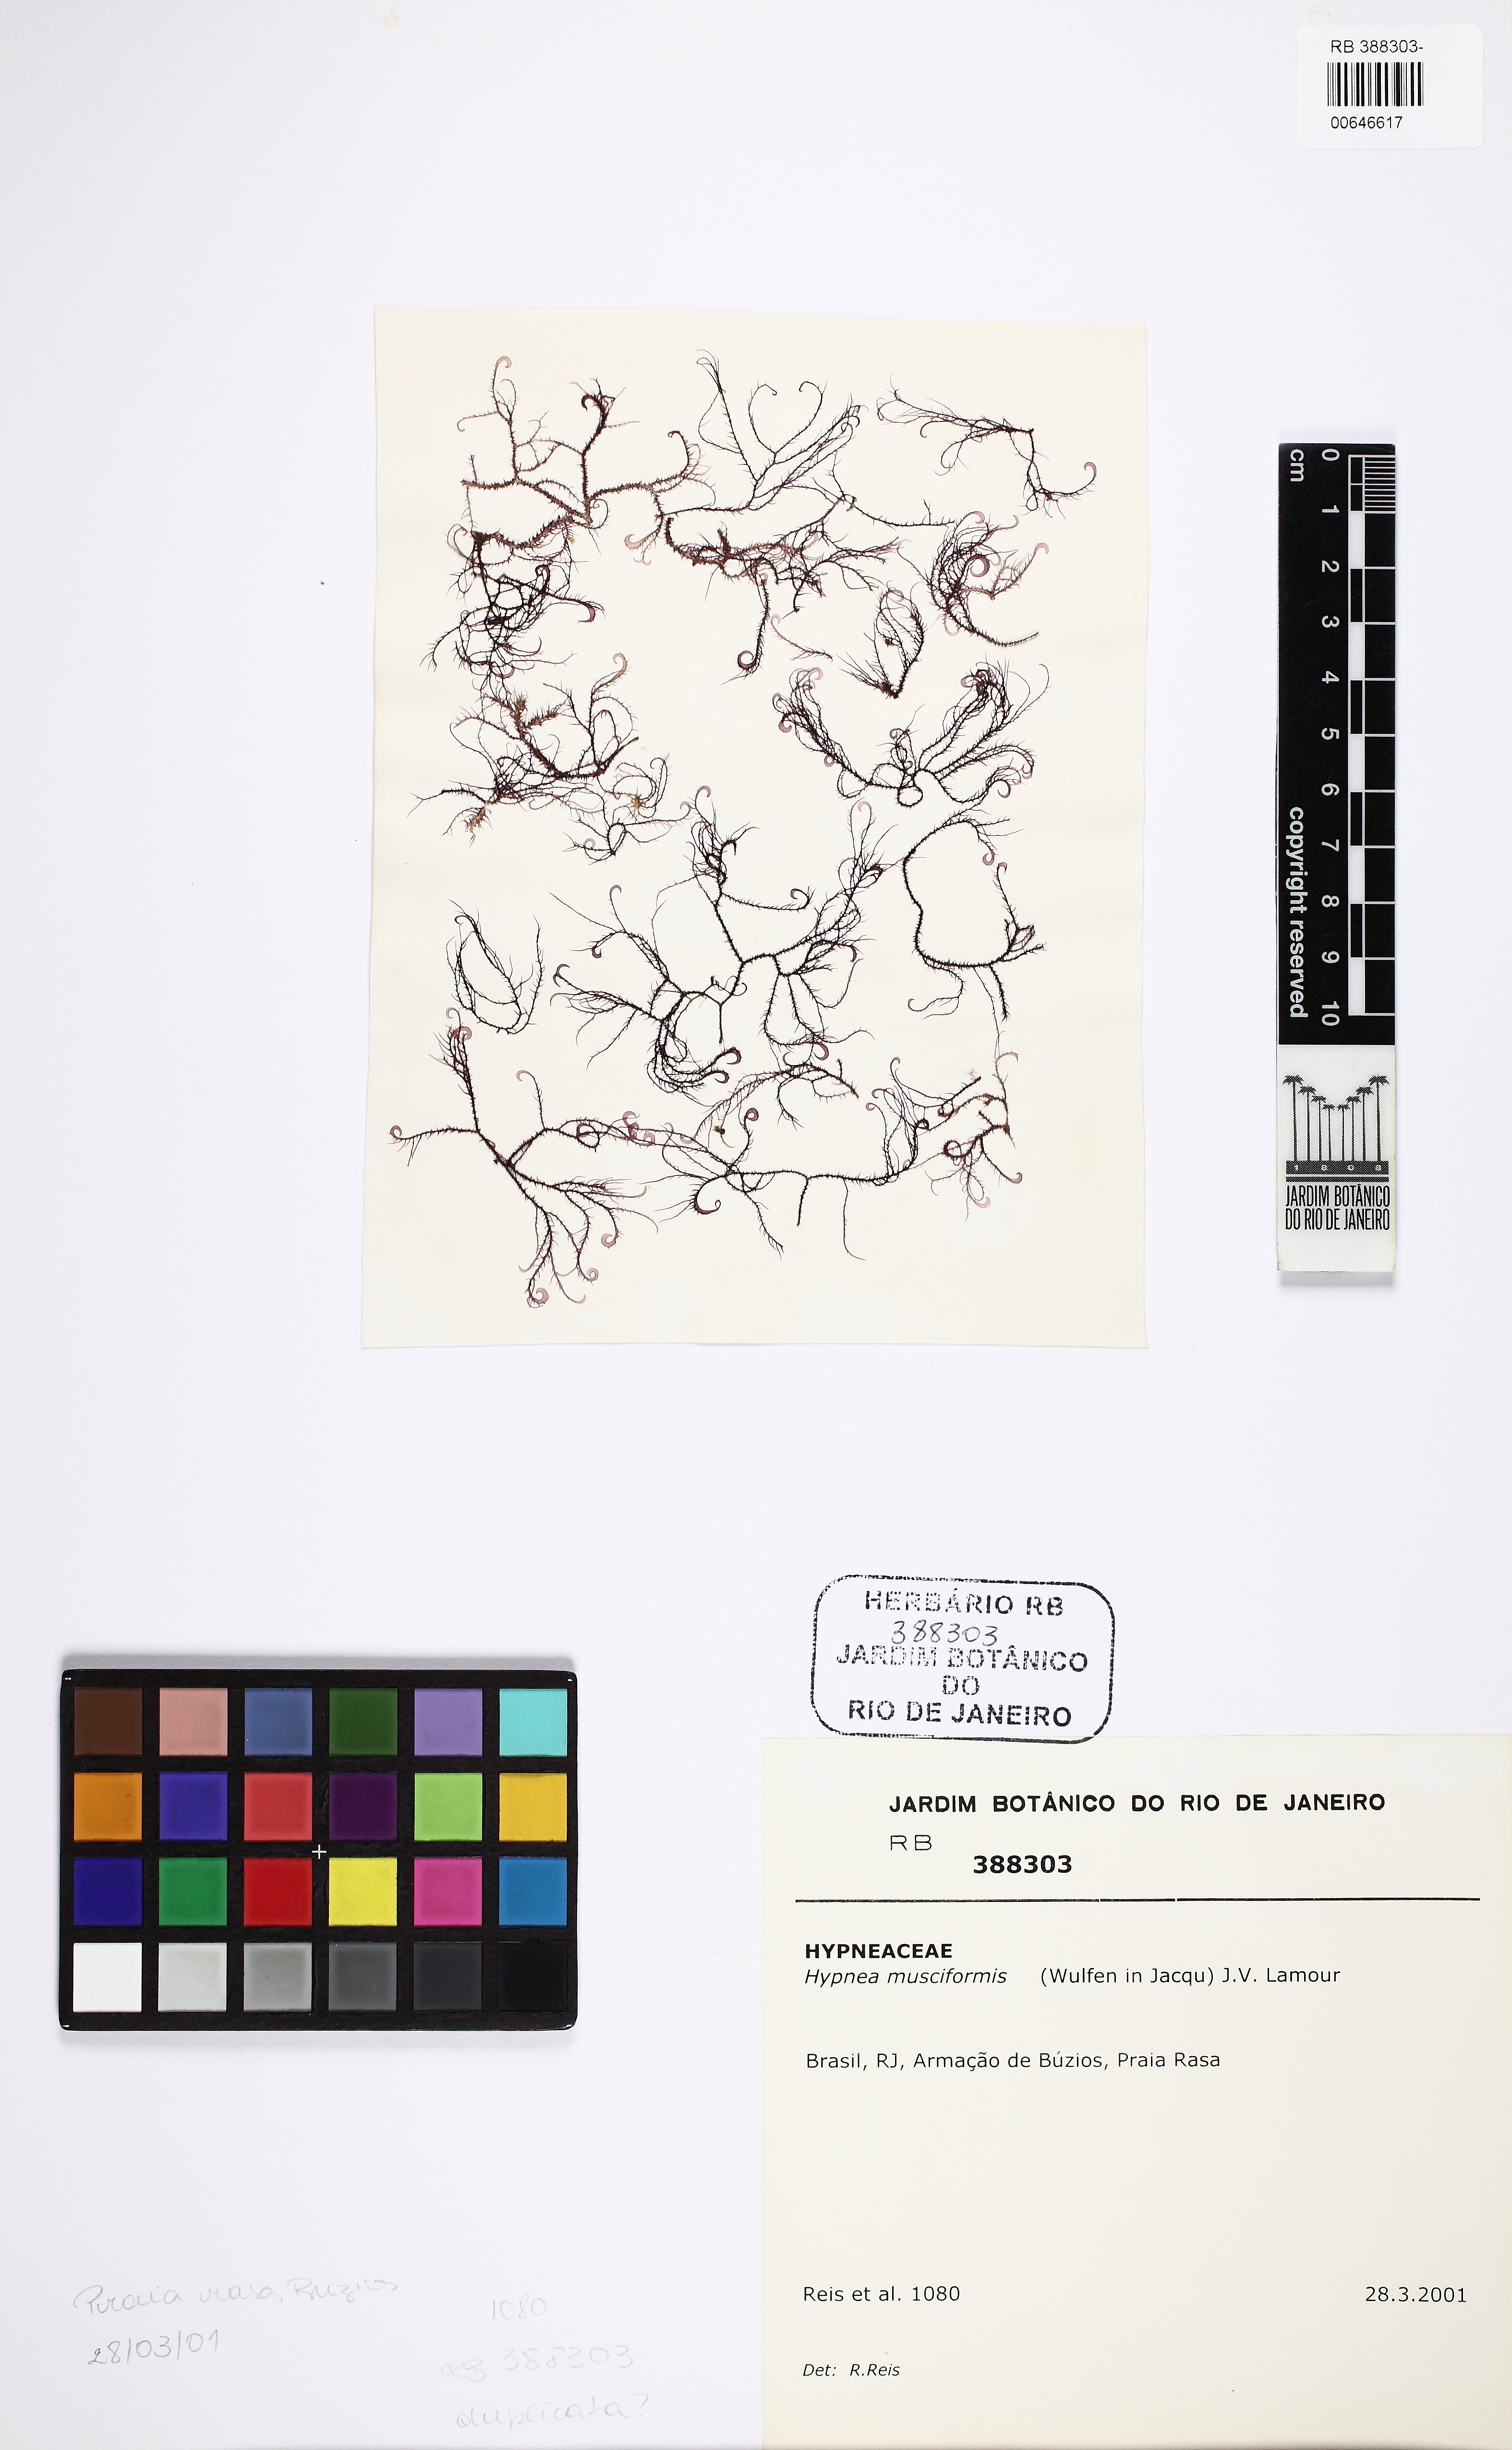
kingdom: Plantae
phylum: Rhodophyta
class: Florideophyceae
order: Gigartinales
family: Cystocloniaceae
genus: Hypnea
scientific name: Hypnea musciformis
